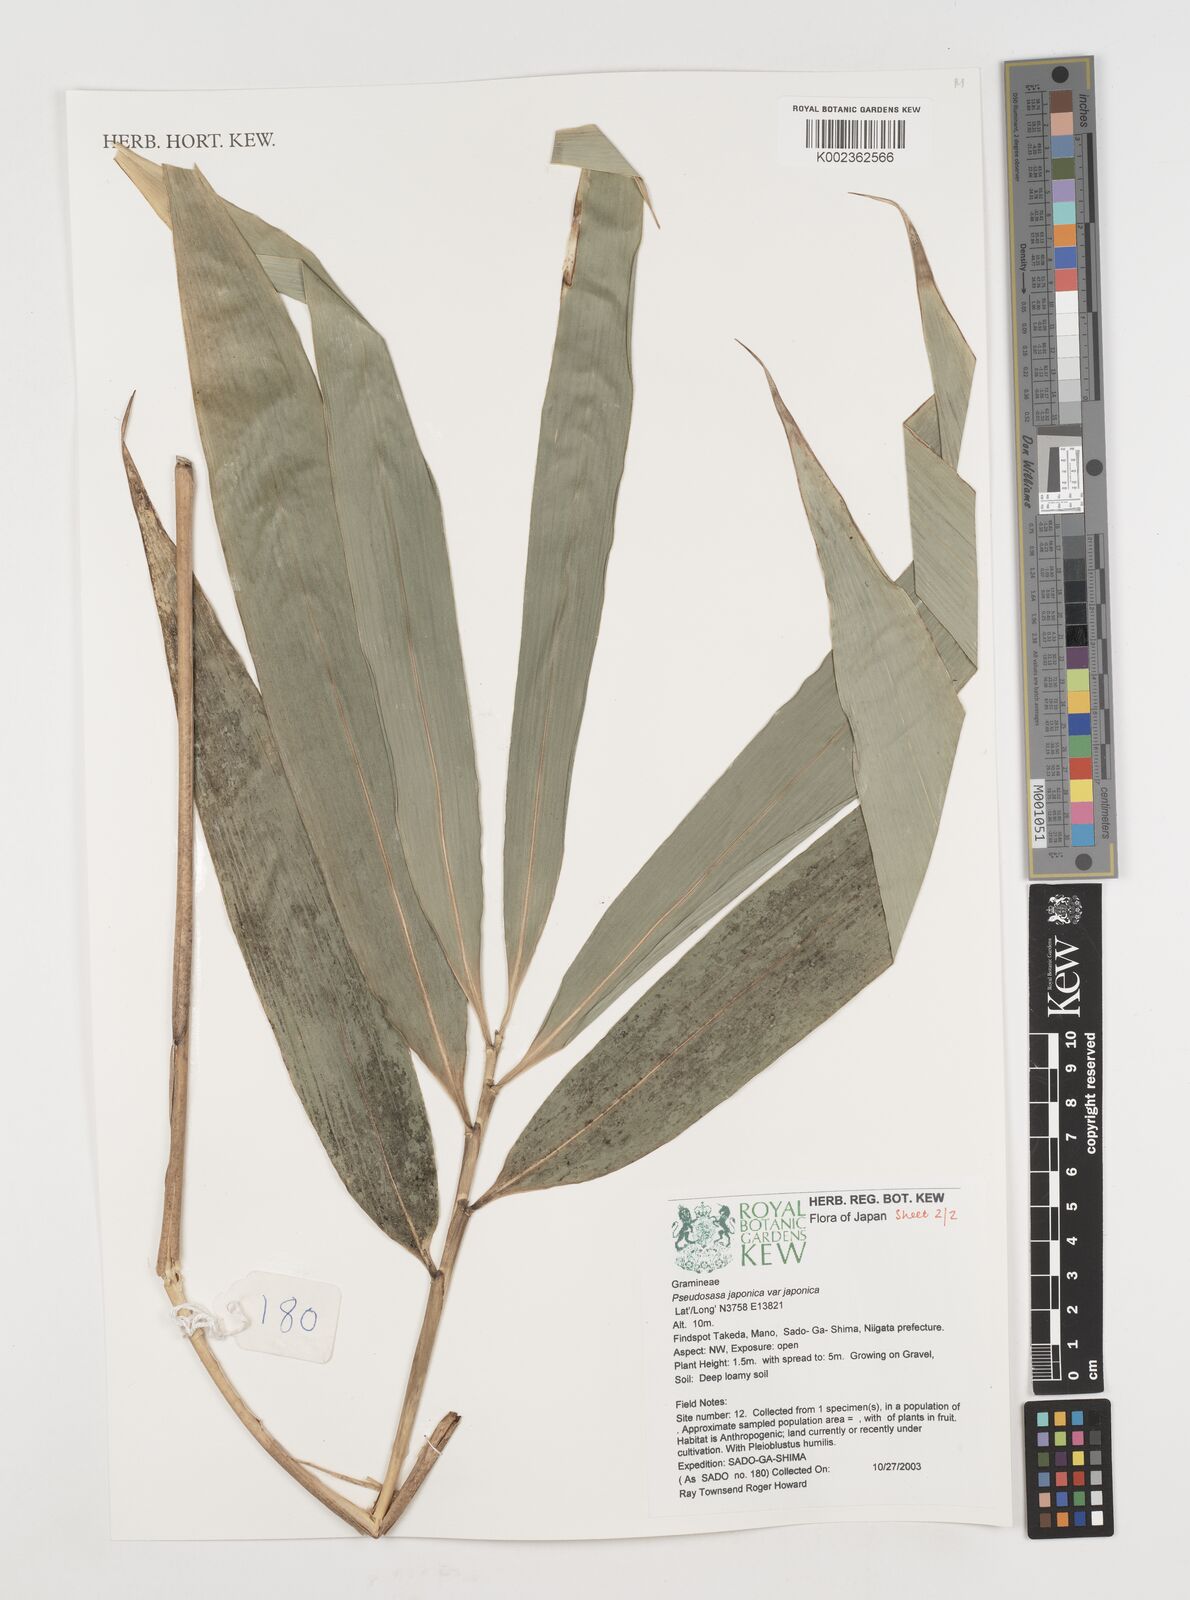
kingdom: Plantae
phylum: Tracheophyta
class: Liliopsida
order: Poales
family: Poaceae
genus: Pseudosasa
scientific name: Pseudosasa japonica
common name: Arrow bamboo
